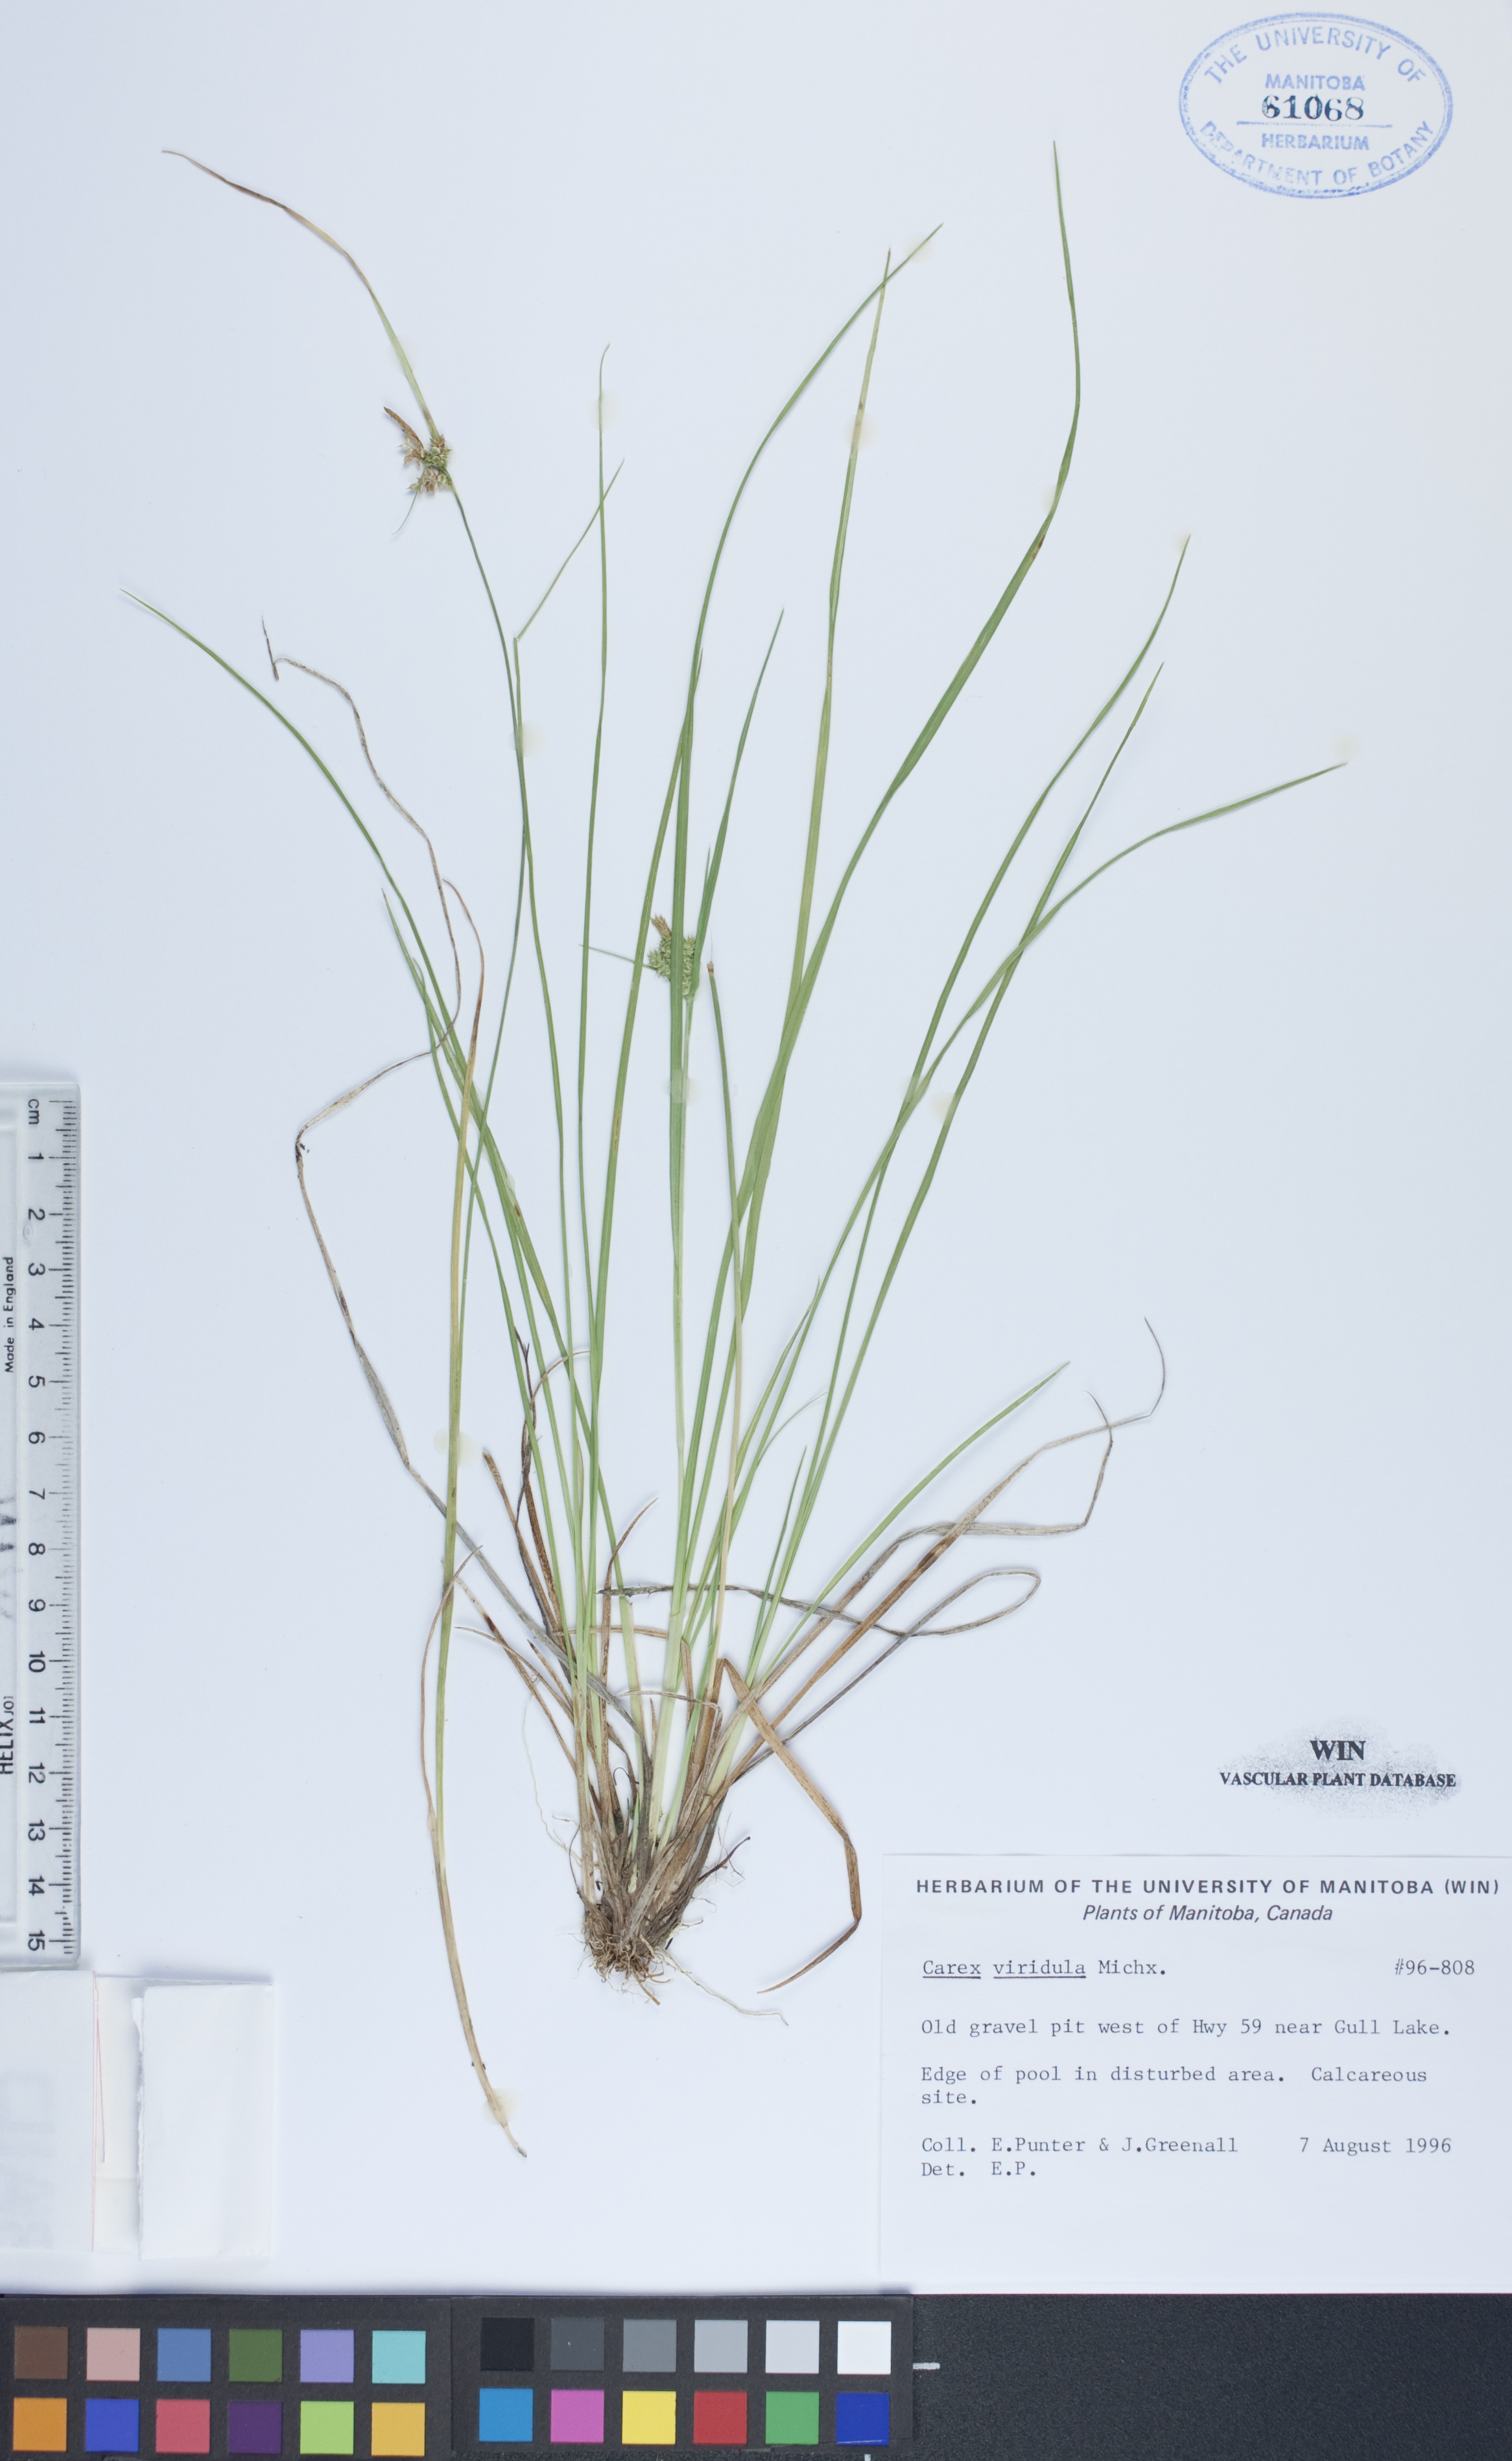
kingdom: Plantae
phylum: Tracheophyta
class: Liliopsida
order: Poales
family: Cyperaceae
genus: Carex
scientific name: Carex oederi
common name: Common & small-fruited yellow-sedge
